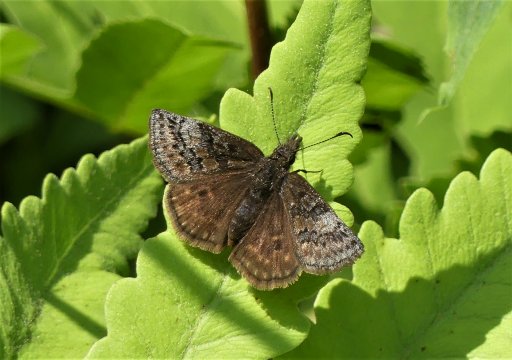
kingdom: Animalia
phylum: Arthropoda
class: Insecta
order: Lepidoptera
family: Hesperiidae
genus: Erynnis
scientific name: Erynnis icelus
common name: Dreamy Duskywing
